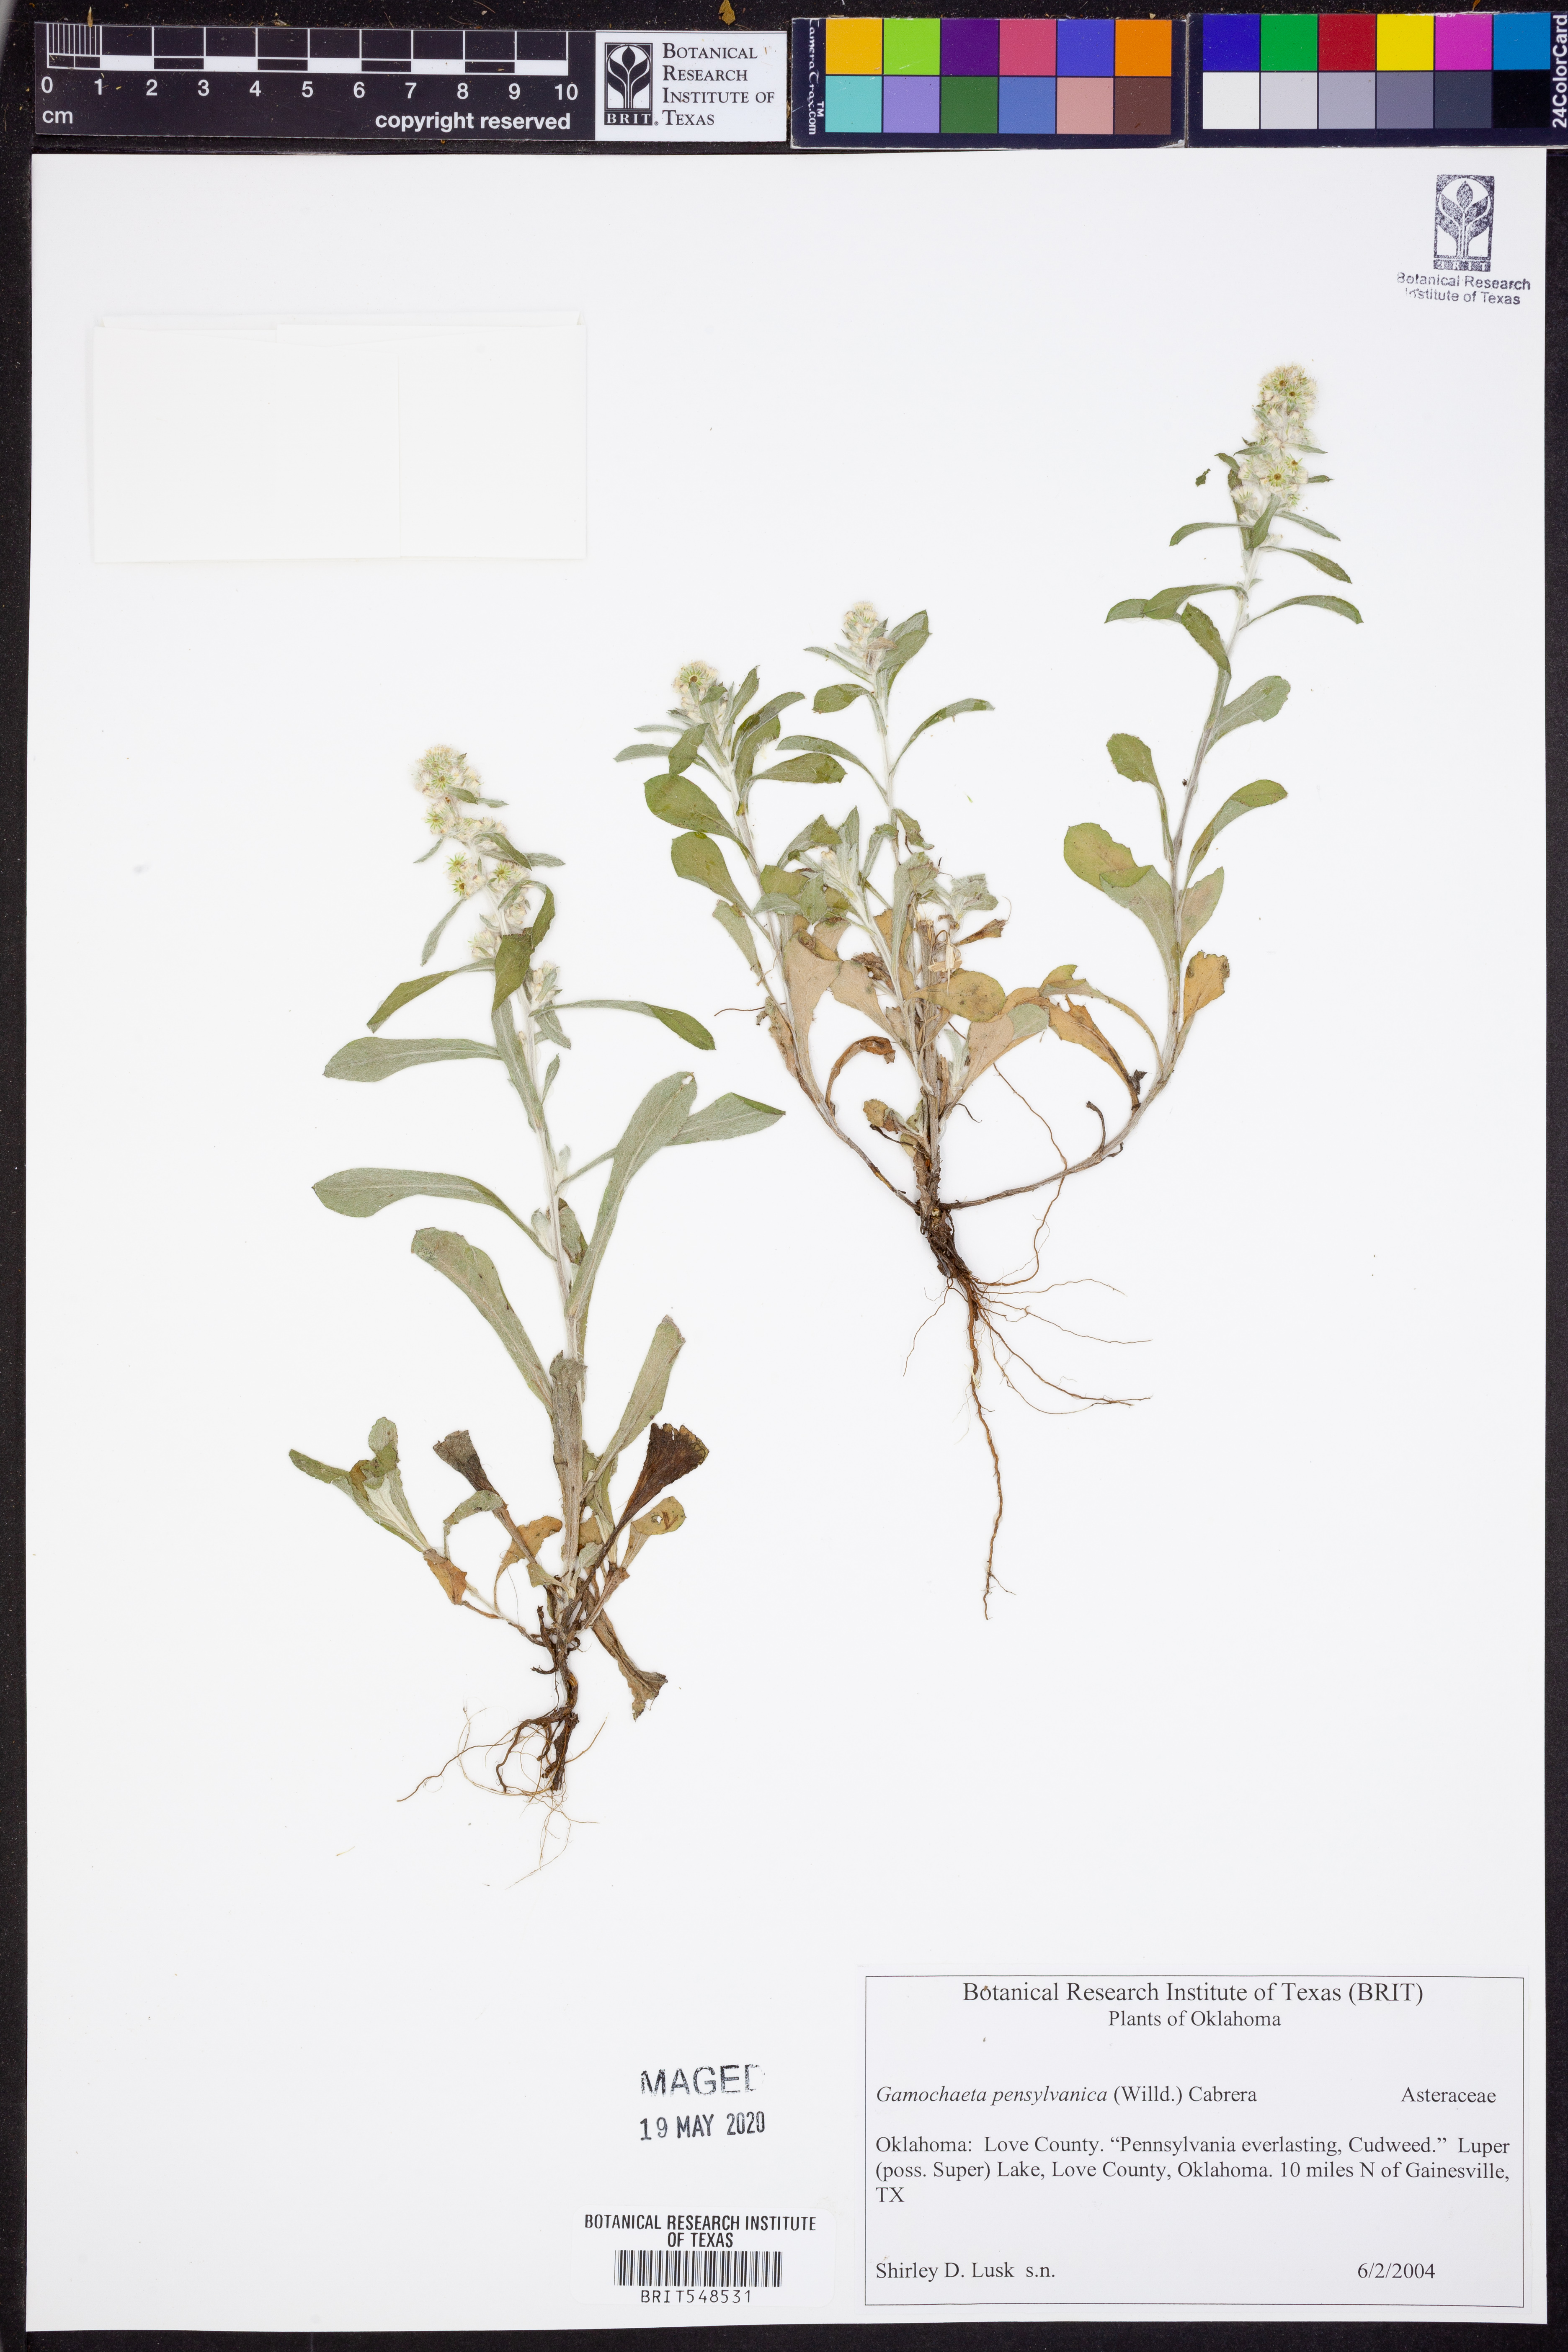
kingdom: Plantae
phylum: Tracheophyta
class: Magnoliopsida
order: Asterales
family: Asteraceae
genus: Gamochaeta
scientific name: Gamochaeta pensylvanica
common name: Pennsylvania everlasting
